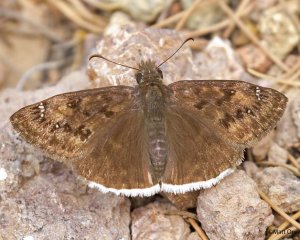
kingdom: Animalia
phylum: Arthropoda
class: Insecta
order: Lepidoptera
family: Hesperiidae
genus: Erynnis
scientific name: Erynnis tristis
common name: Mournful Duskywing
